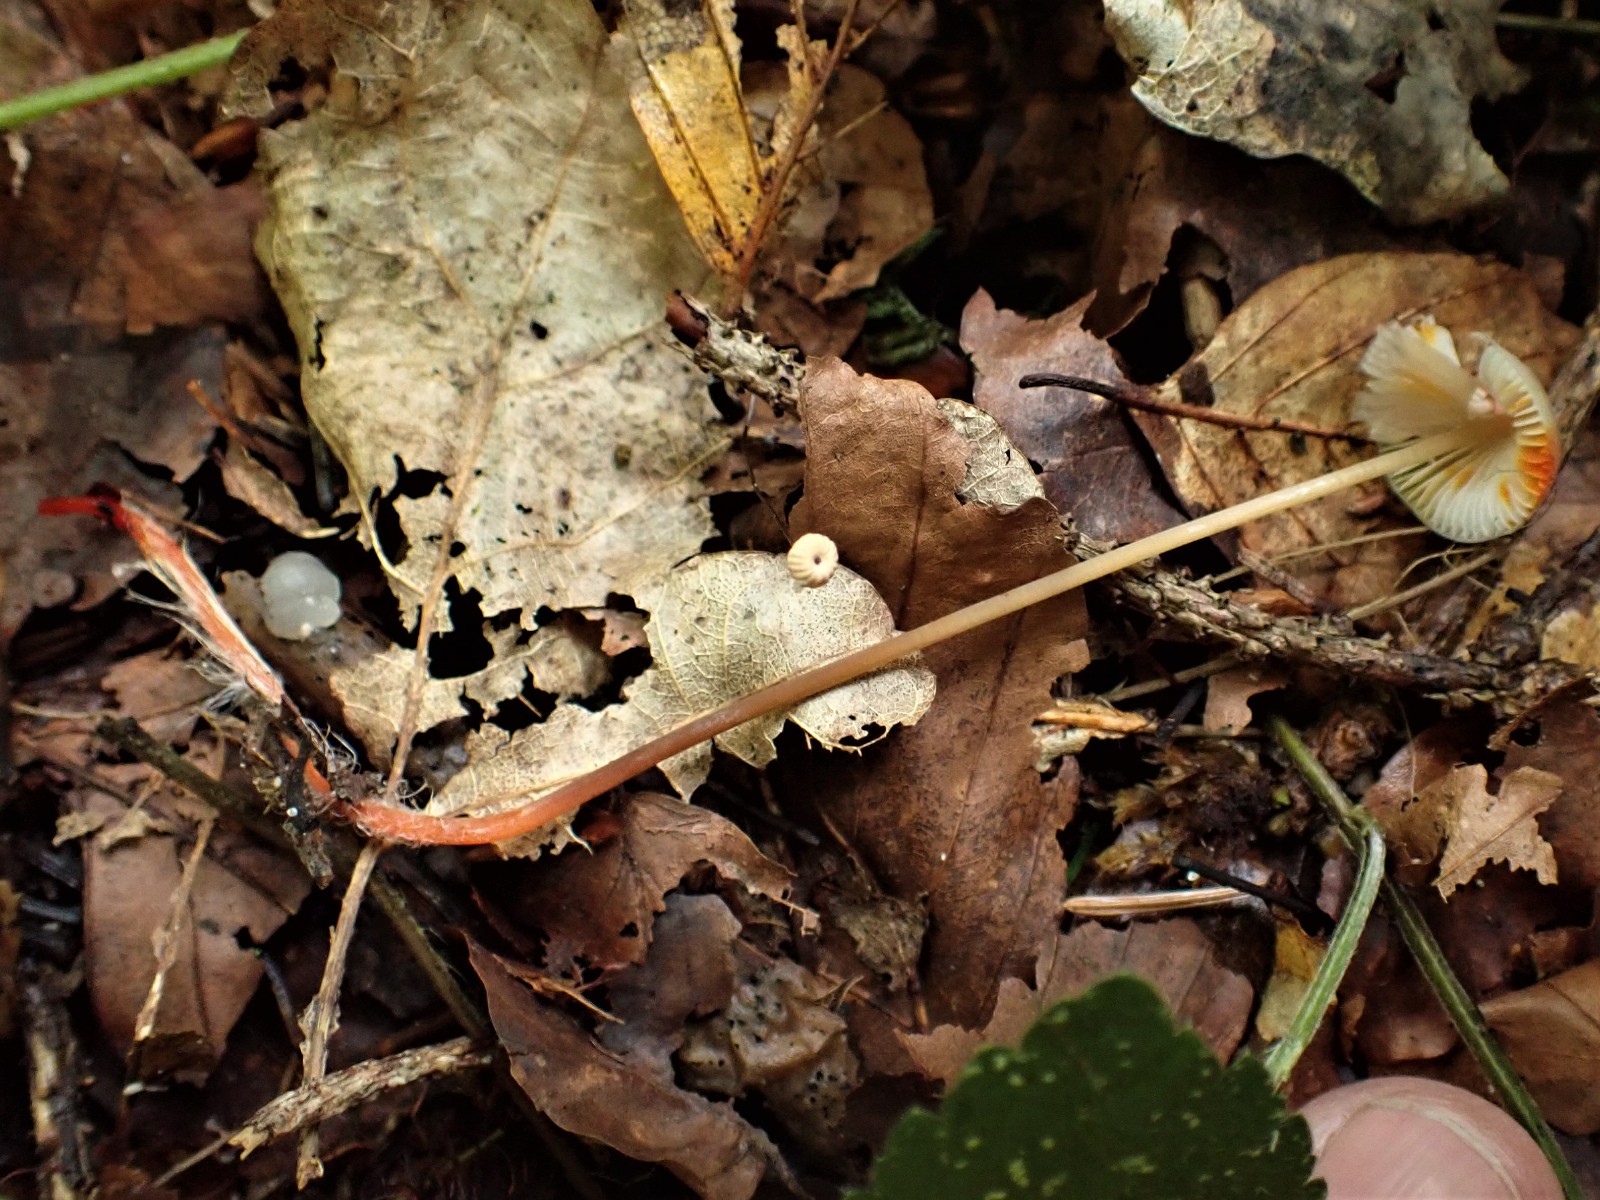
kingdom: Fungi
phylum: Basidiomycota
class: Agaricomycetes
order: Agaricales
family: Mycenaceae
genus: Mycena
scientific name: Mycena crocata
